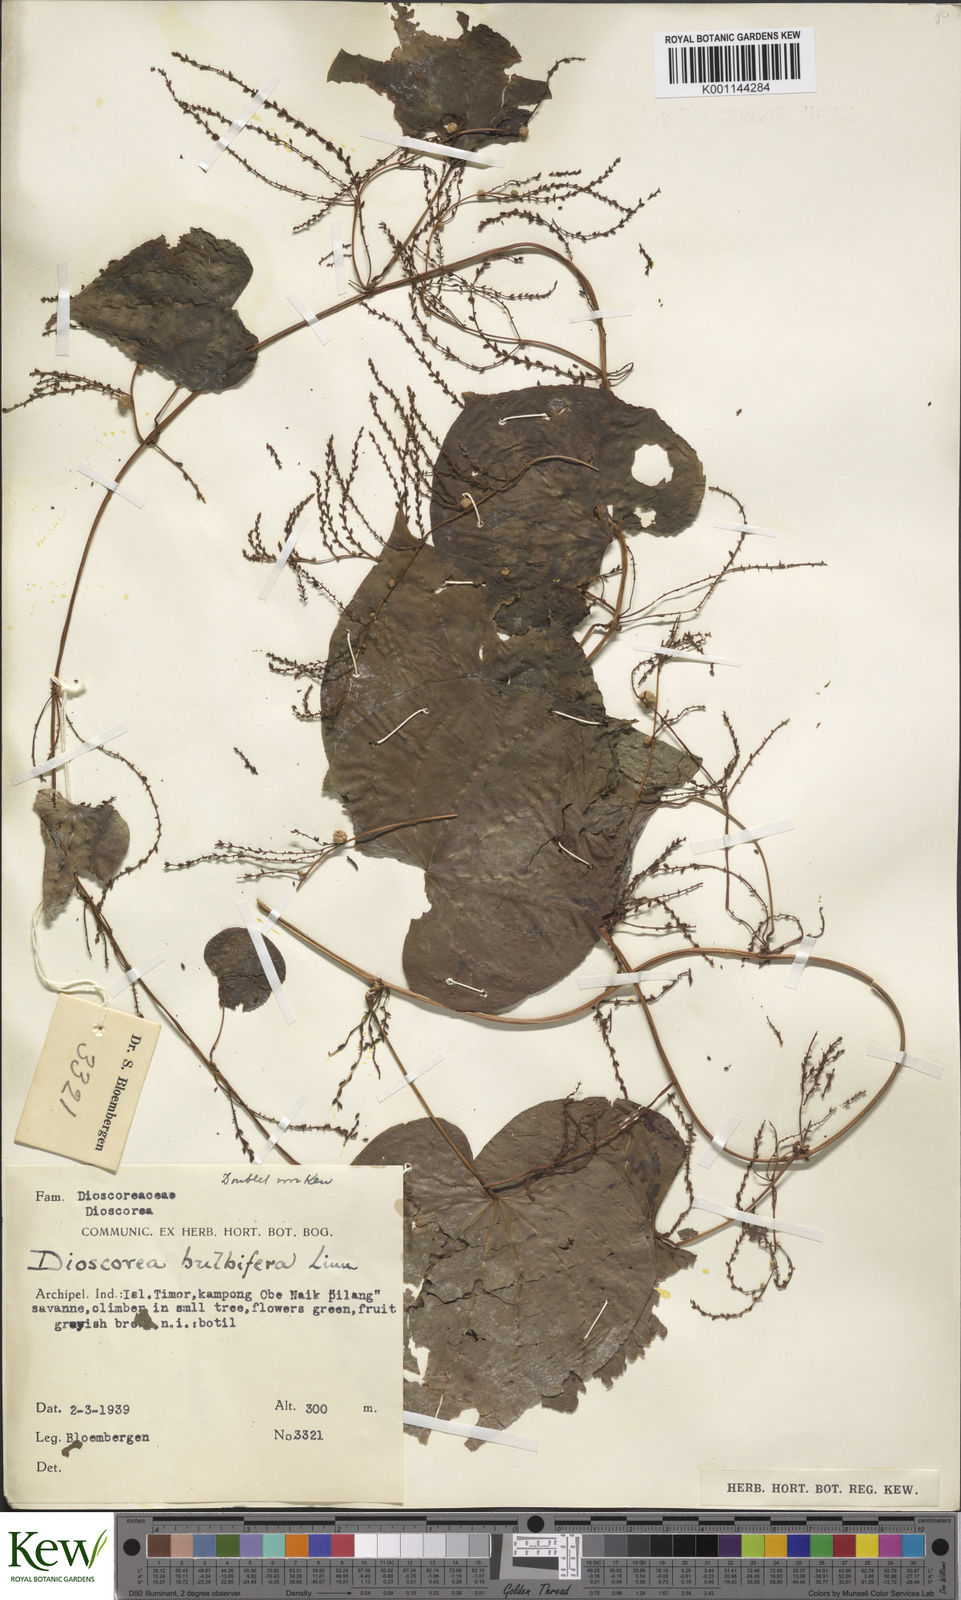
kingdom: Plantae
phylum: Tracheophyta
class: Liliopsida
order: Dioscoreales
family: Dioscoreaceae
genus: Dioscorea
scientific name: Dioscorea bulbifera
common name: Air yam
